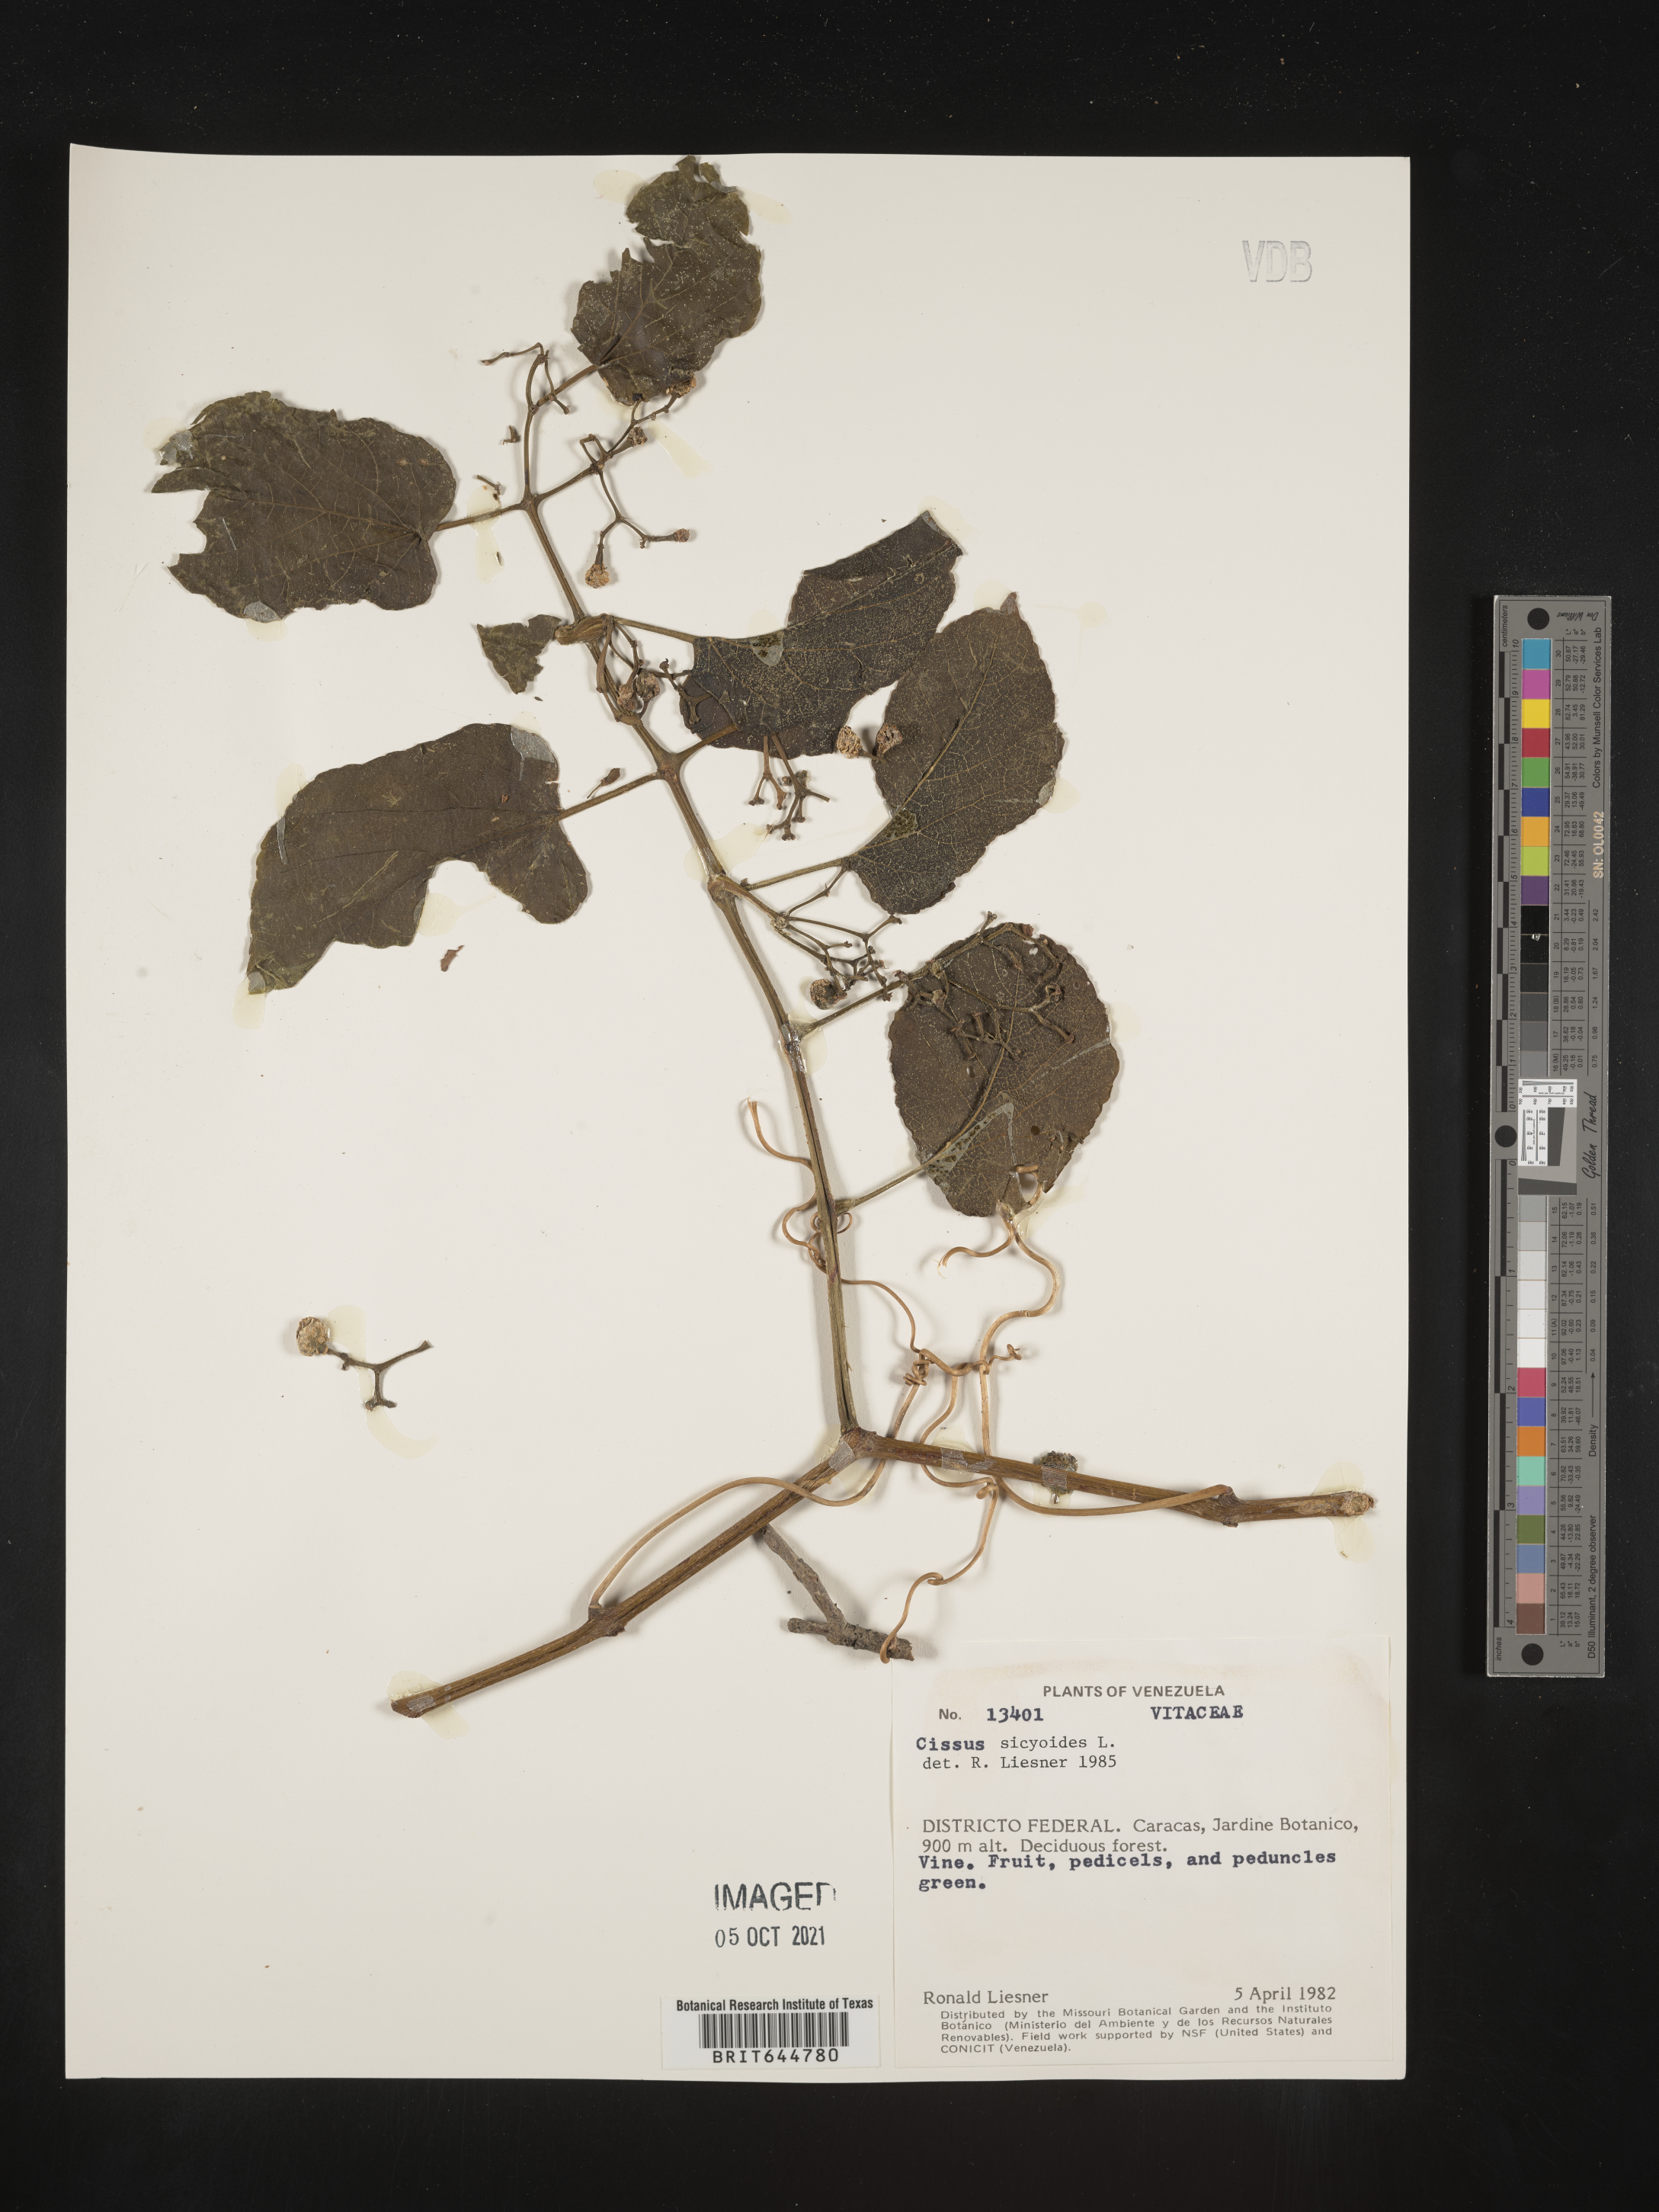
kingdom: Plantae
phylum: Tracheophyta
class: Magnoliopsida
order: Vitales
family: Vitaceae
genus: Cissus
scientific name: Cissus
